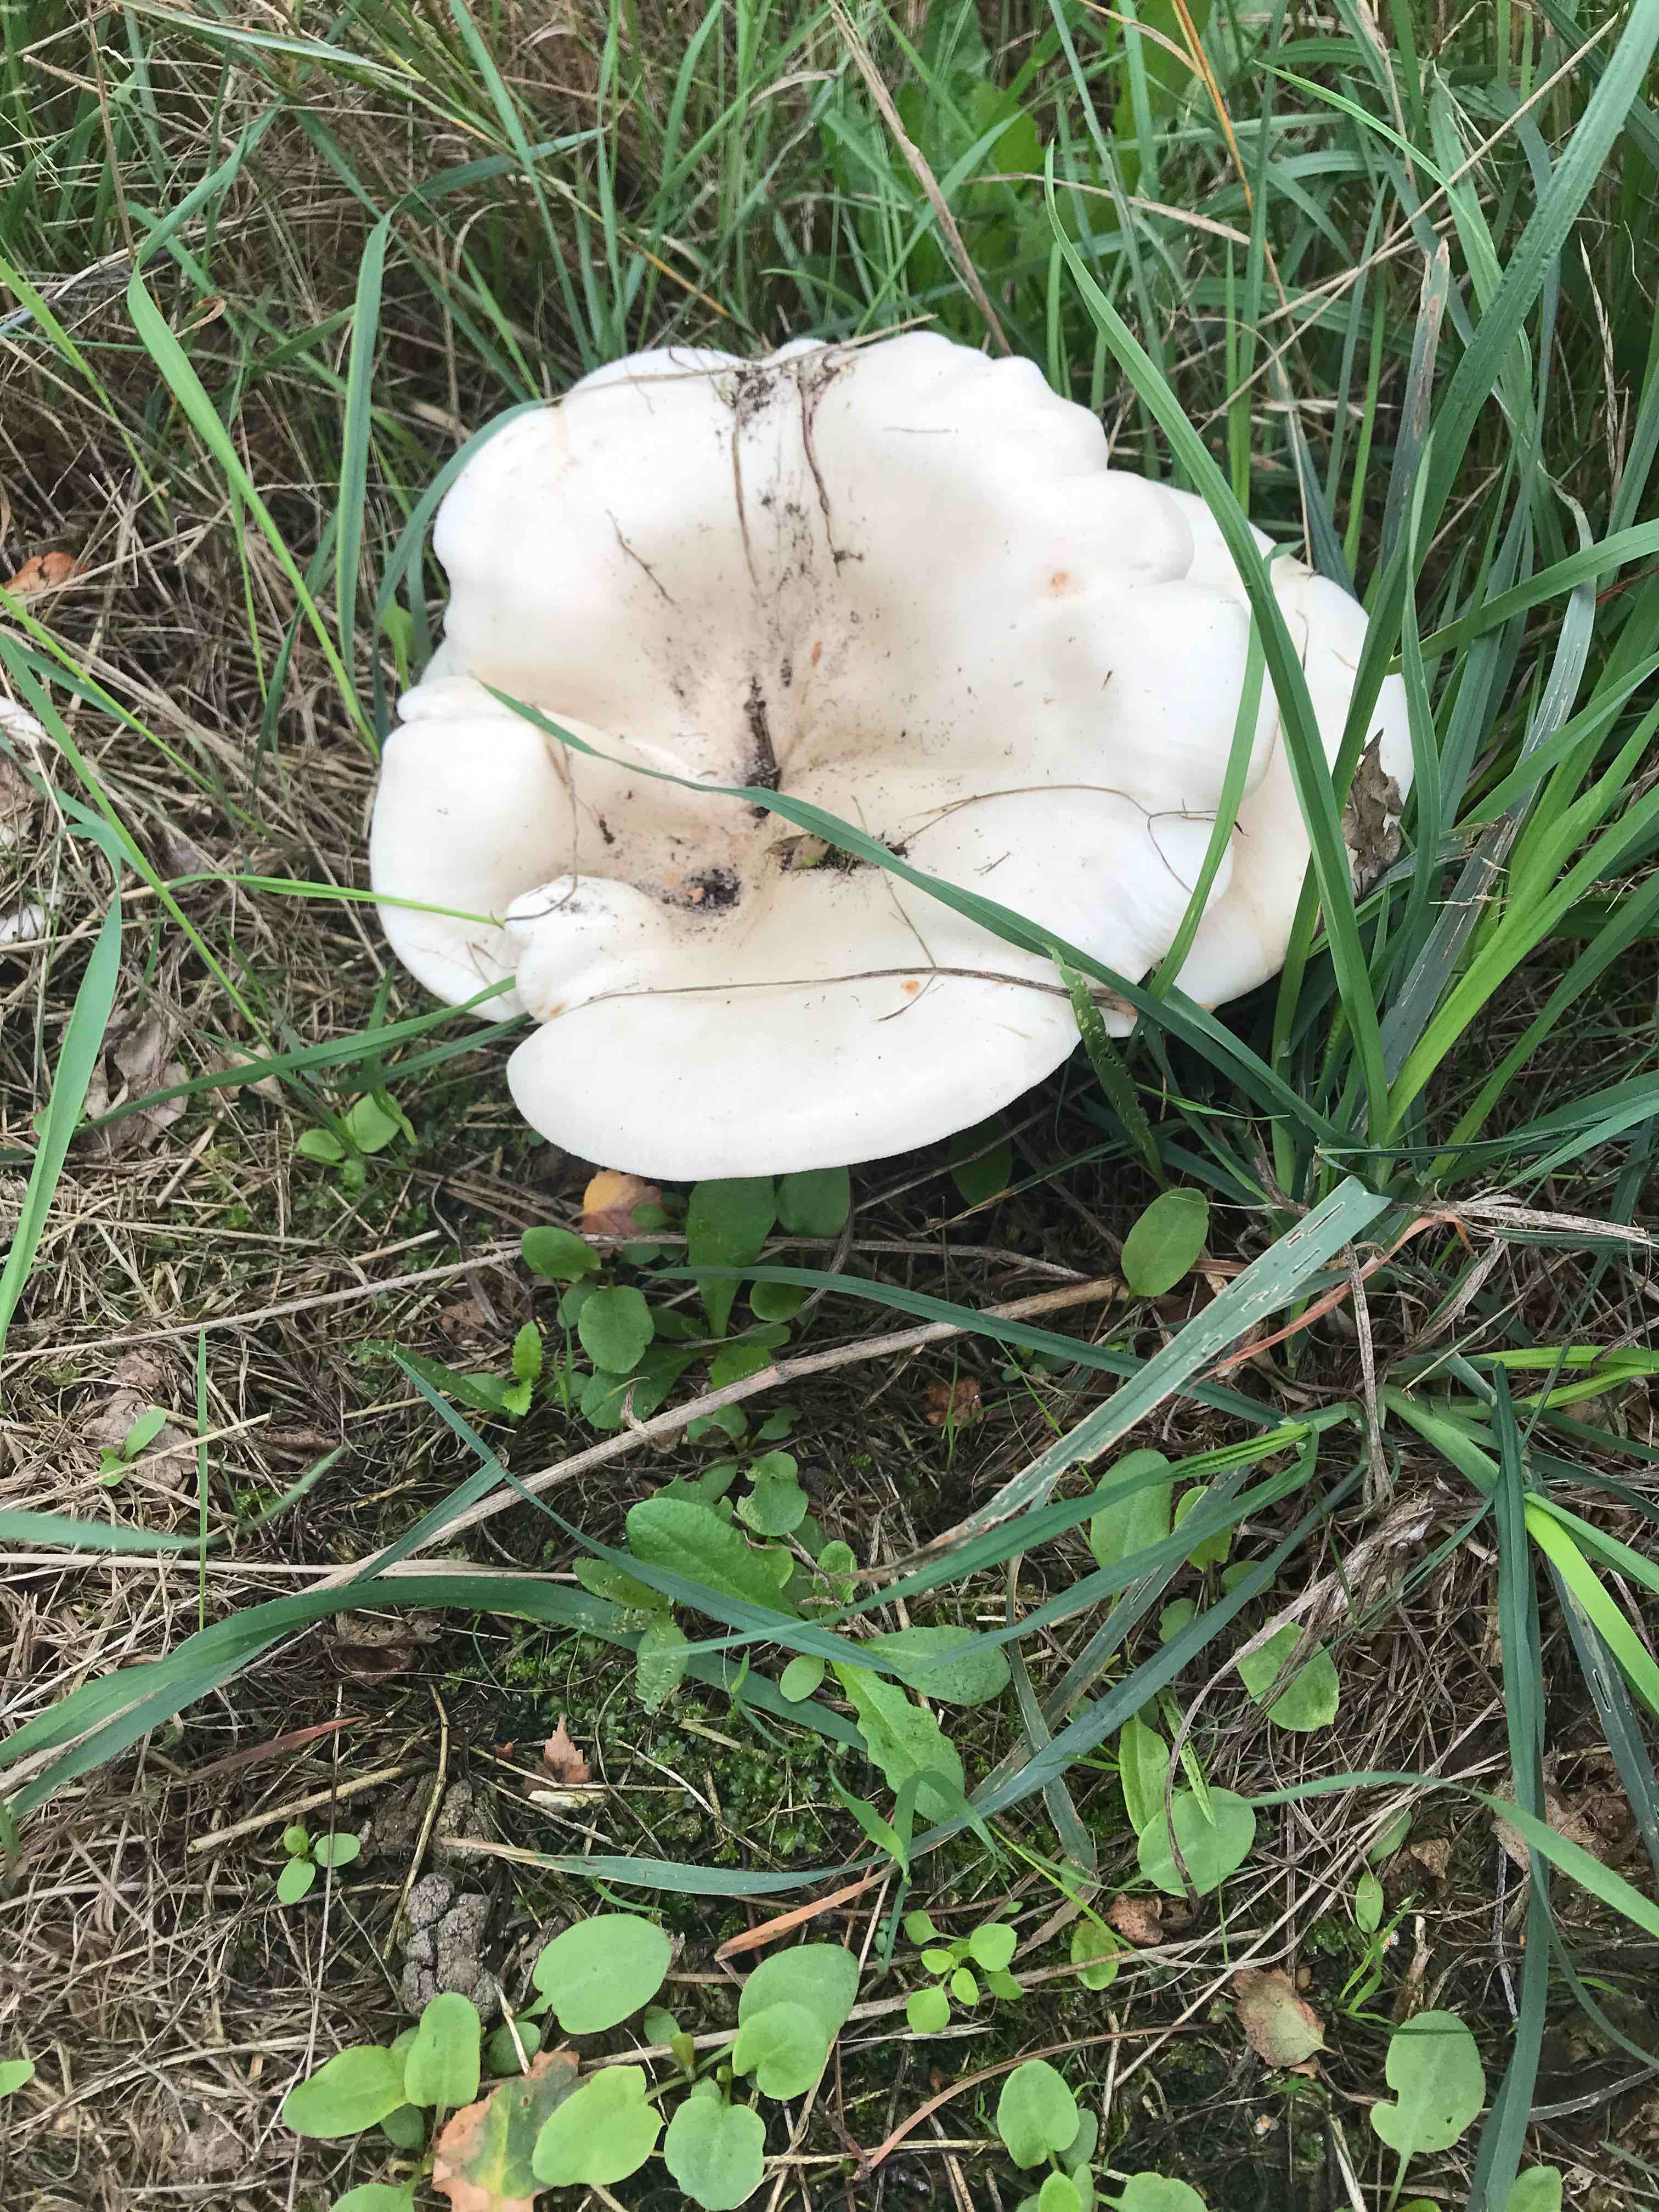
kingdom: Fungi
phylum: Basidiomycota
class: Agaricomycetes
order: Agaricales
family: Tricholomataceae
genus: Aspropaxillus
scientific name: Aspropaxillus giganteus
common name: kæmpe-tragtridderhat
